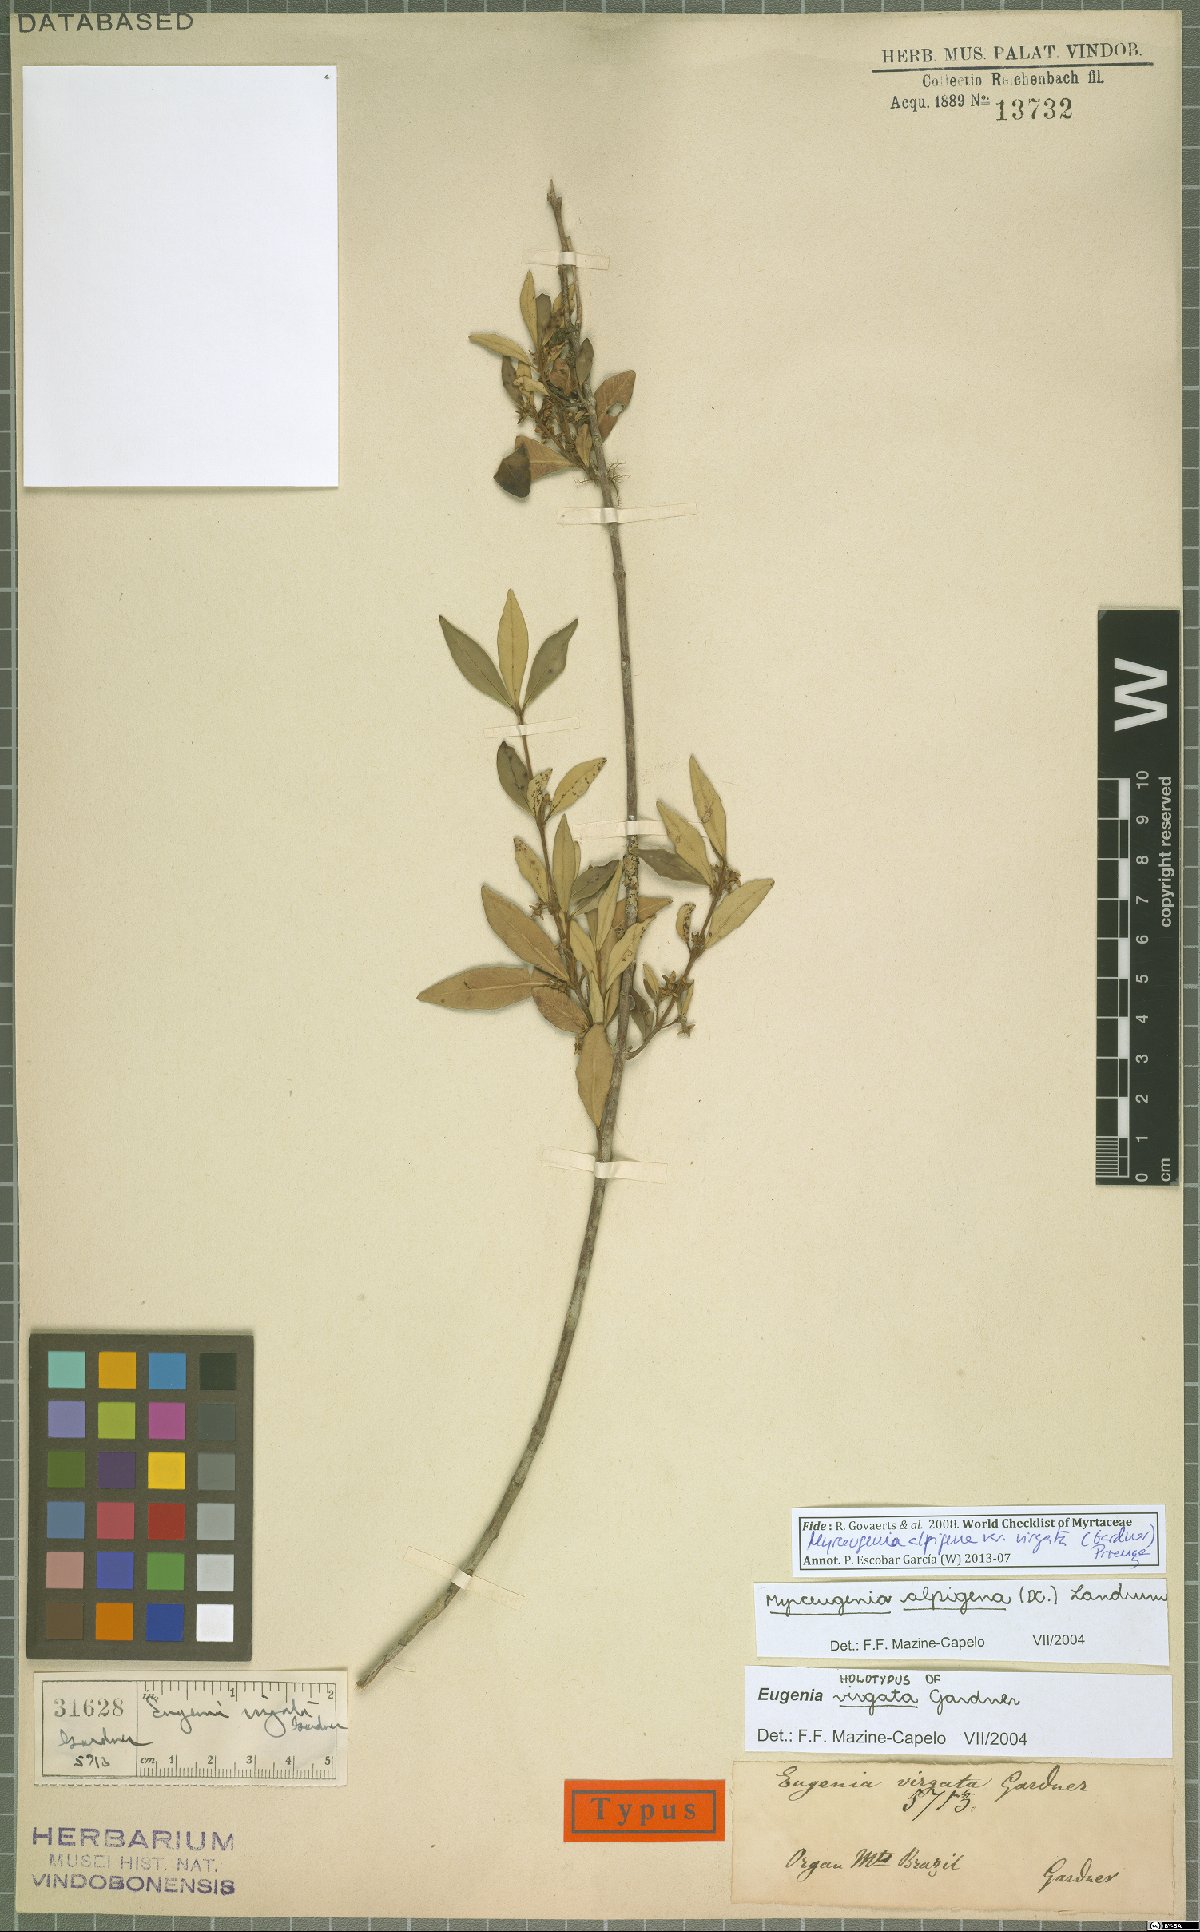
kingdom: Plantae
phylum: Tracheophyta
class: Magnoliopsida
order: Myrtales
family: Myrtaceae
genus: Eugenia
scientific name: Eugenia biflora
